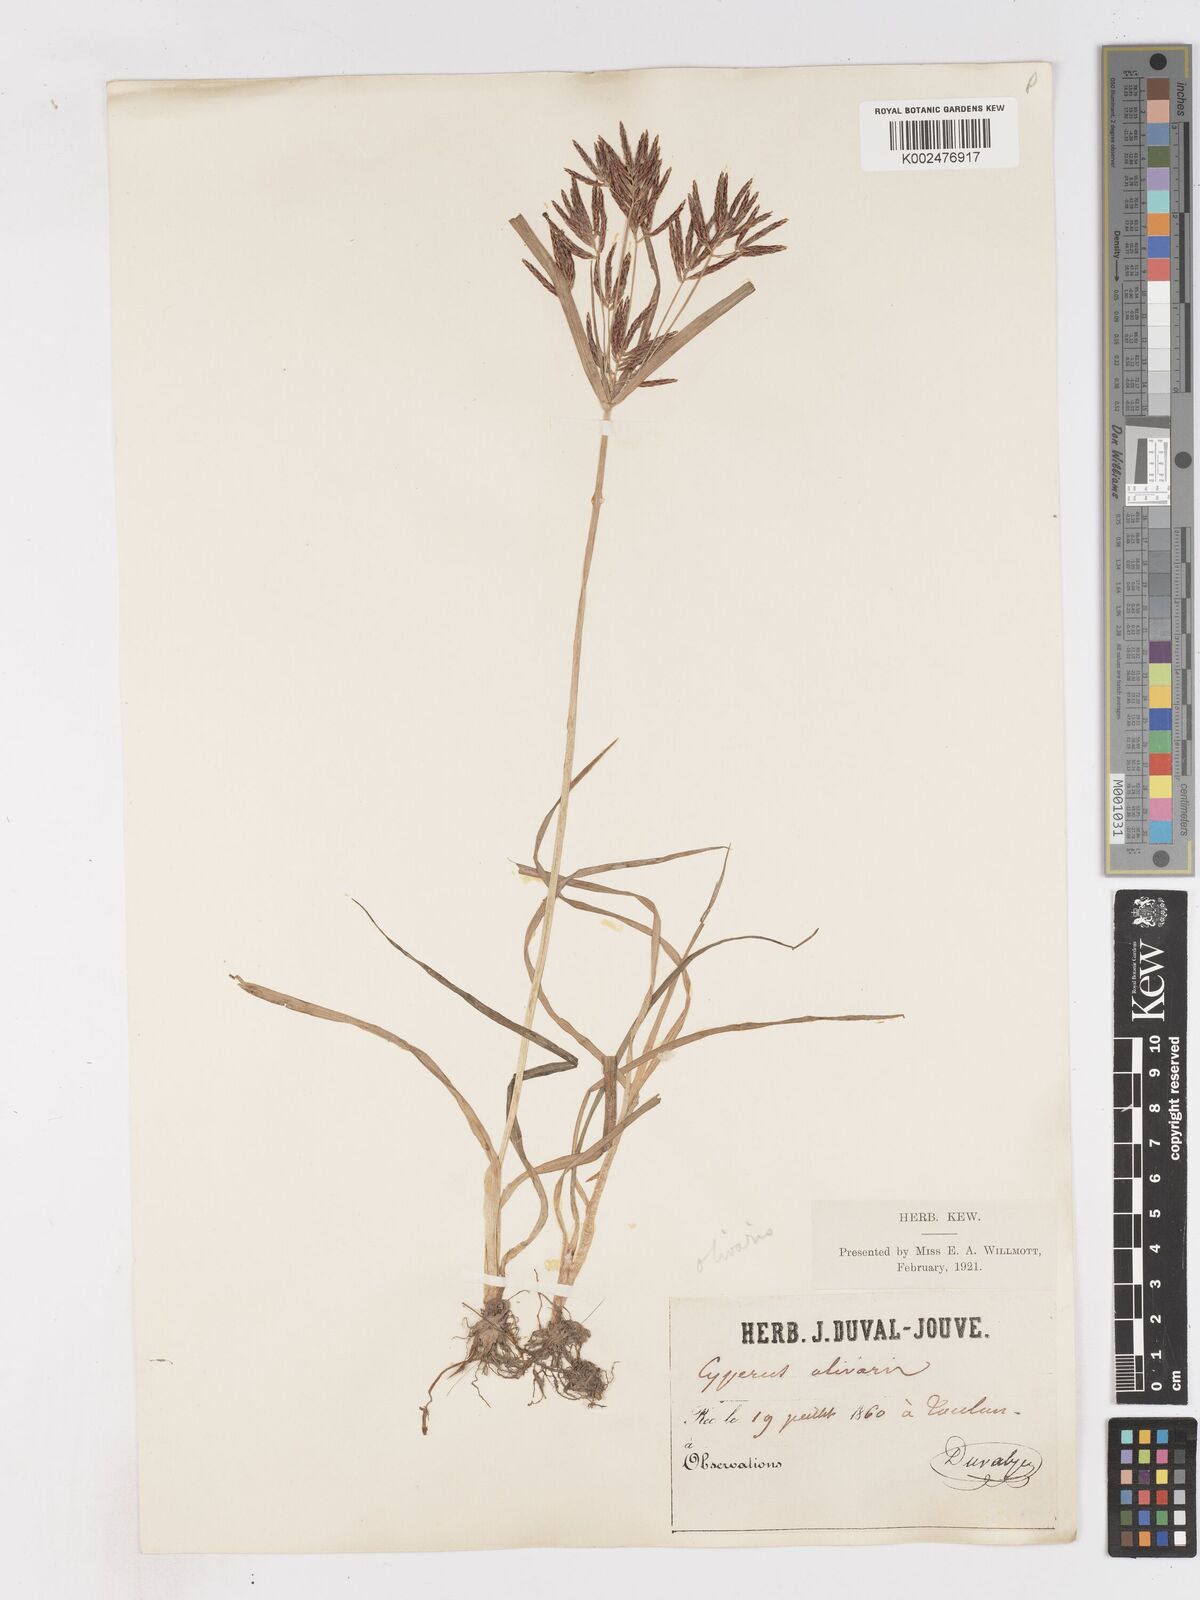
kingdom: Plantae
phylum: Tracheophyta
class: Liliopsida
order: Poales
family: Cyperaceae
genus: Cyperus
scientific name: Cyperus rotundus
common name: Nutgrass
